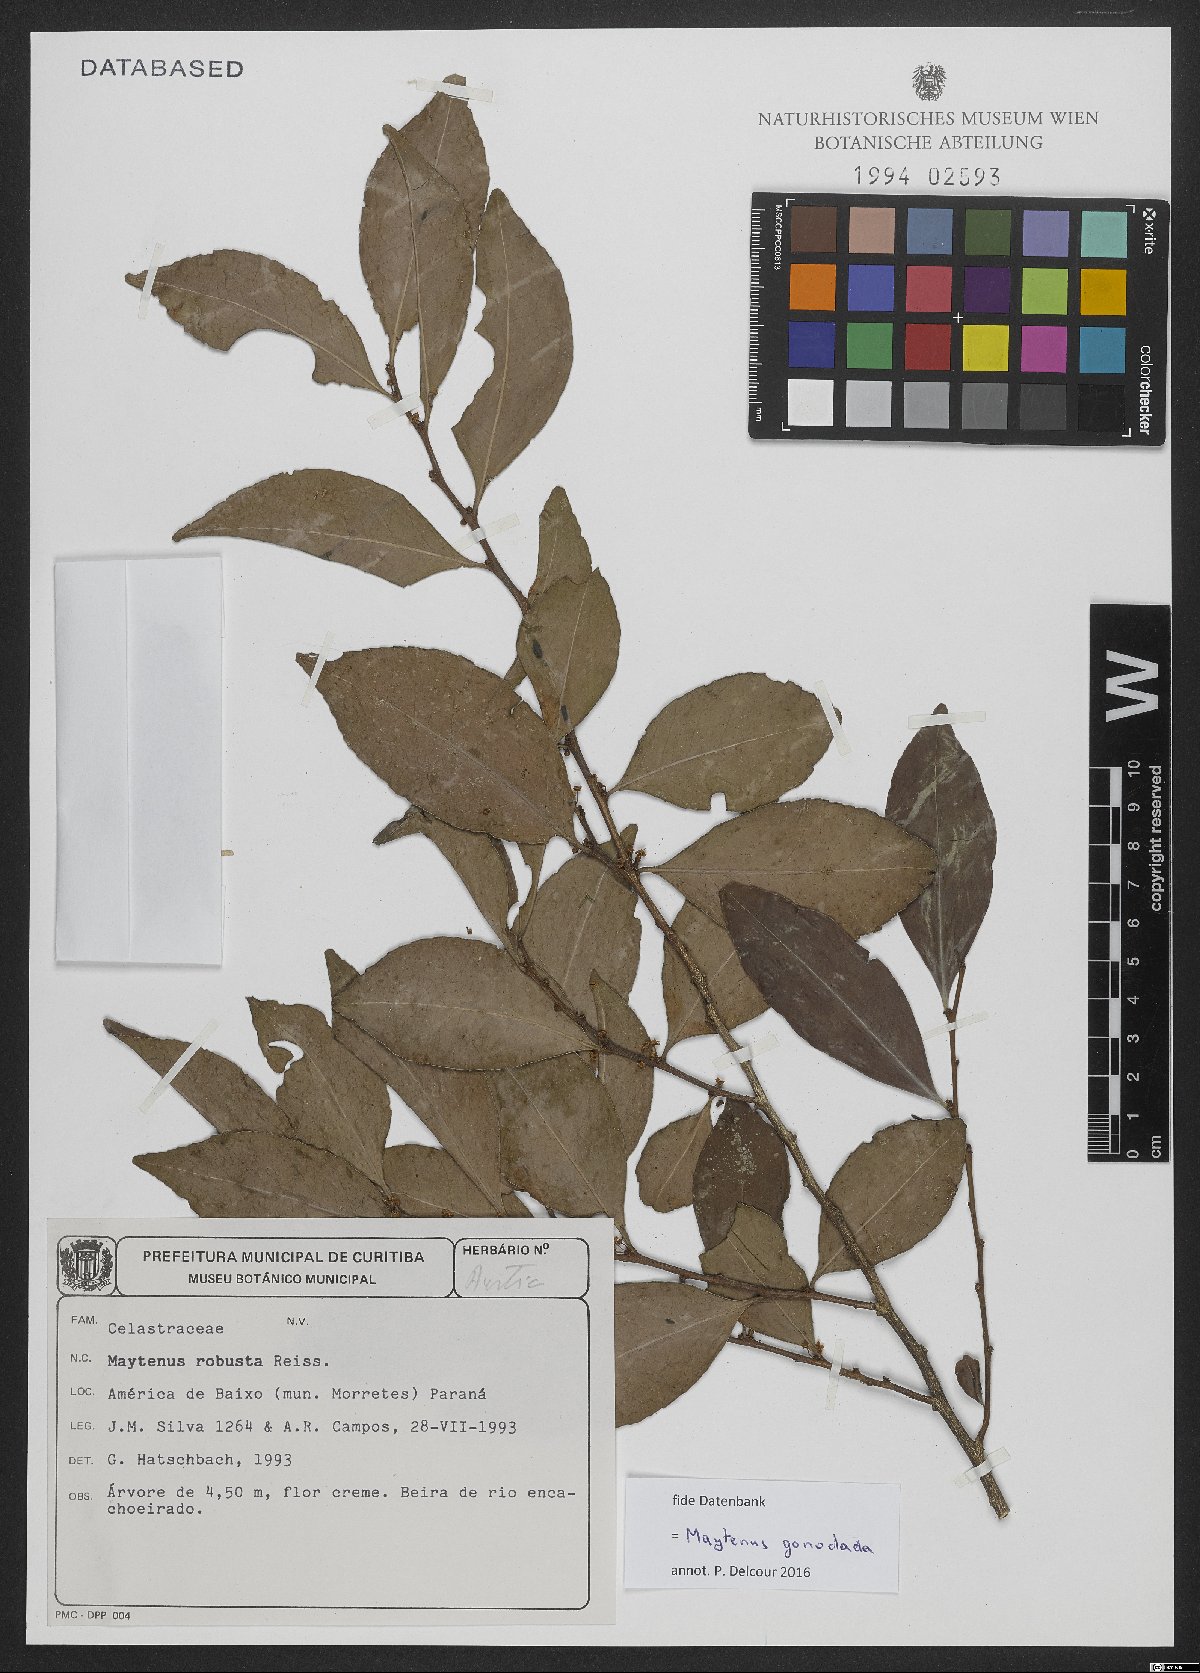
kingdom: Plantae
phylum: Tracheophyta
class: Magnoliopsida
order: Celastrales
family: Celastraceae
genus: Monteverdia
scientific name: Monteverdia gonoclada
